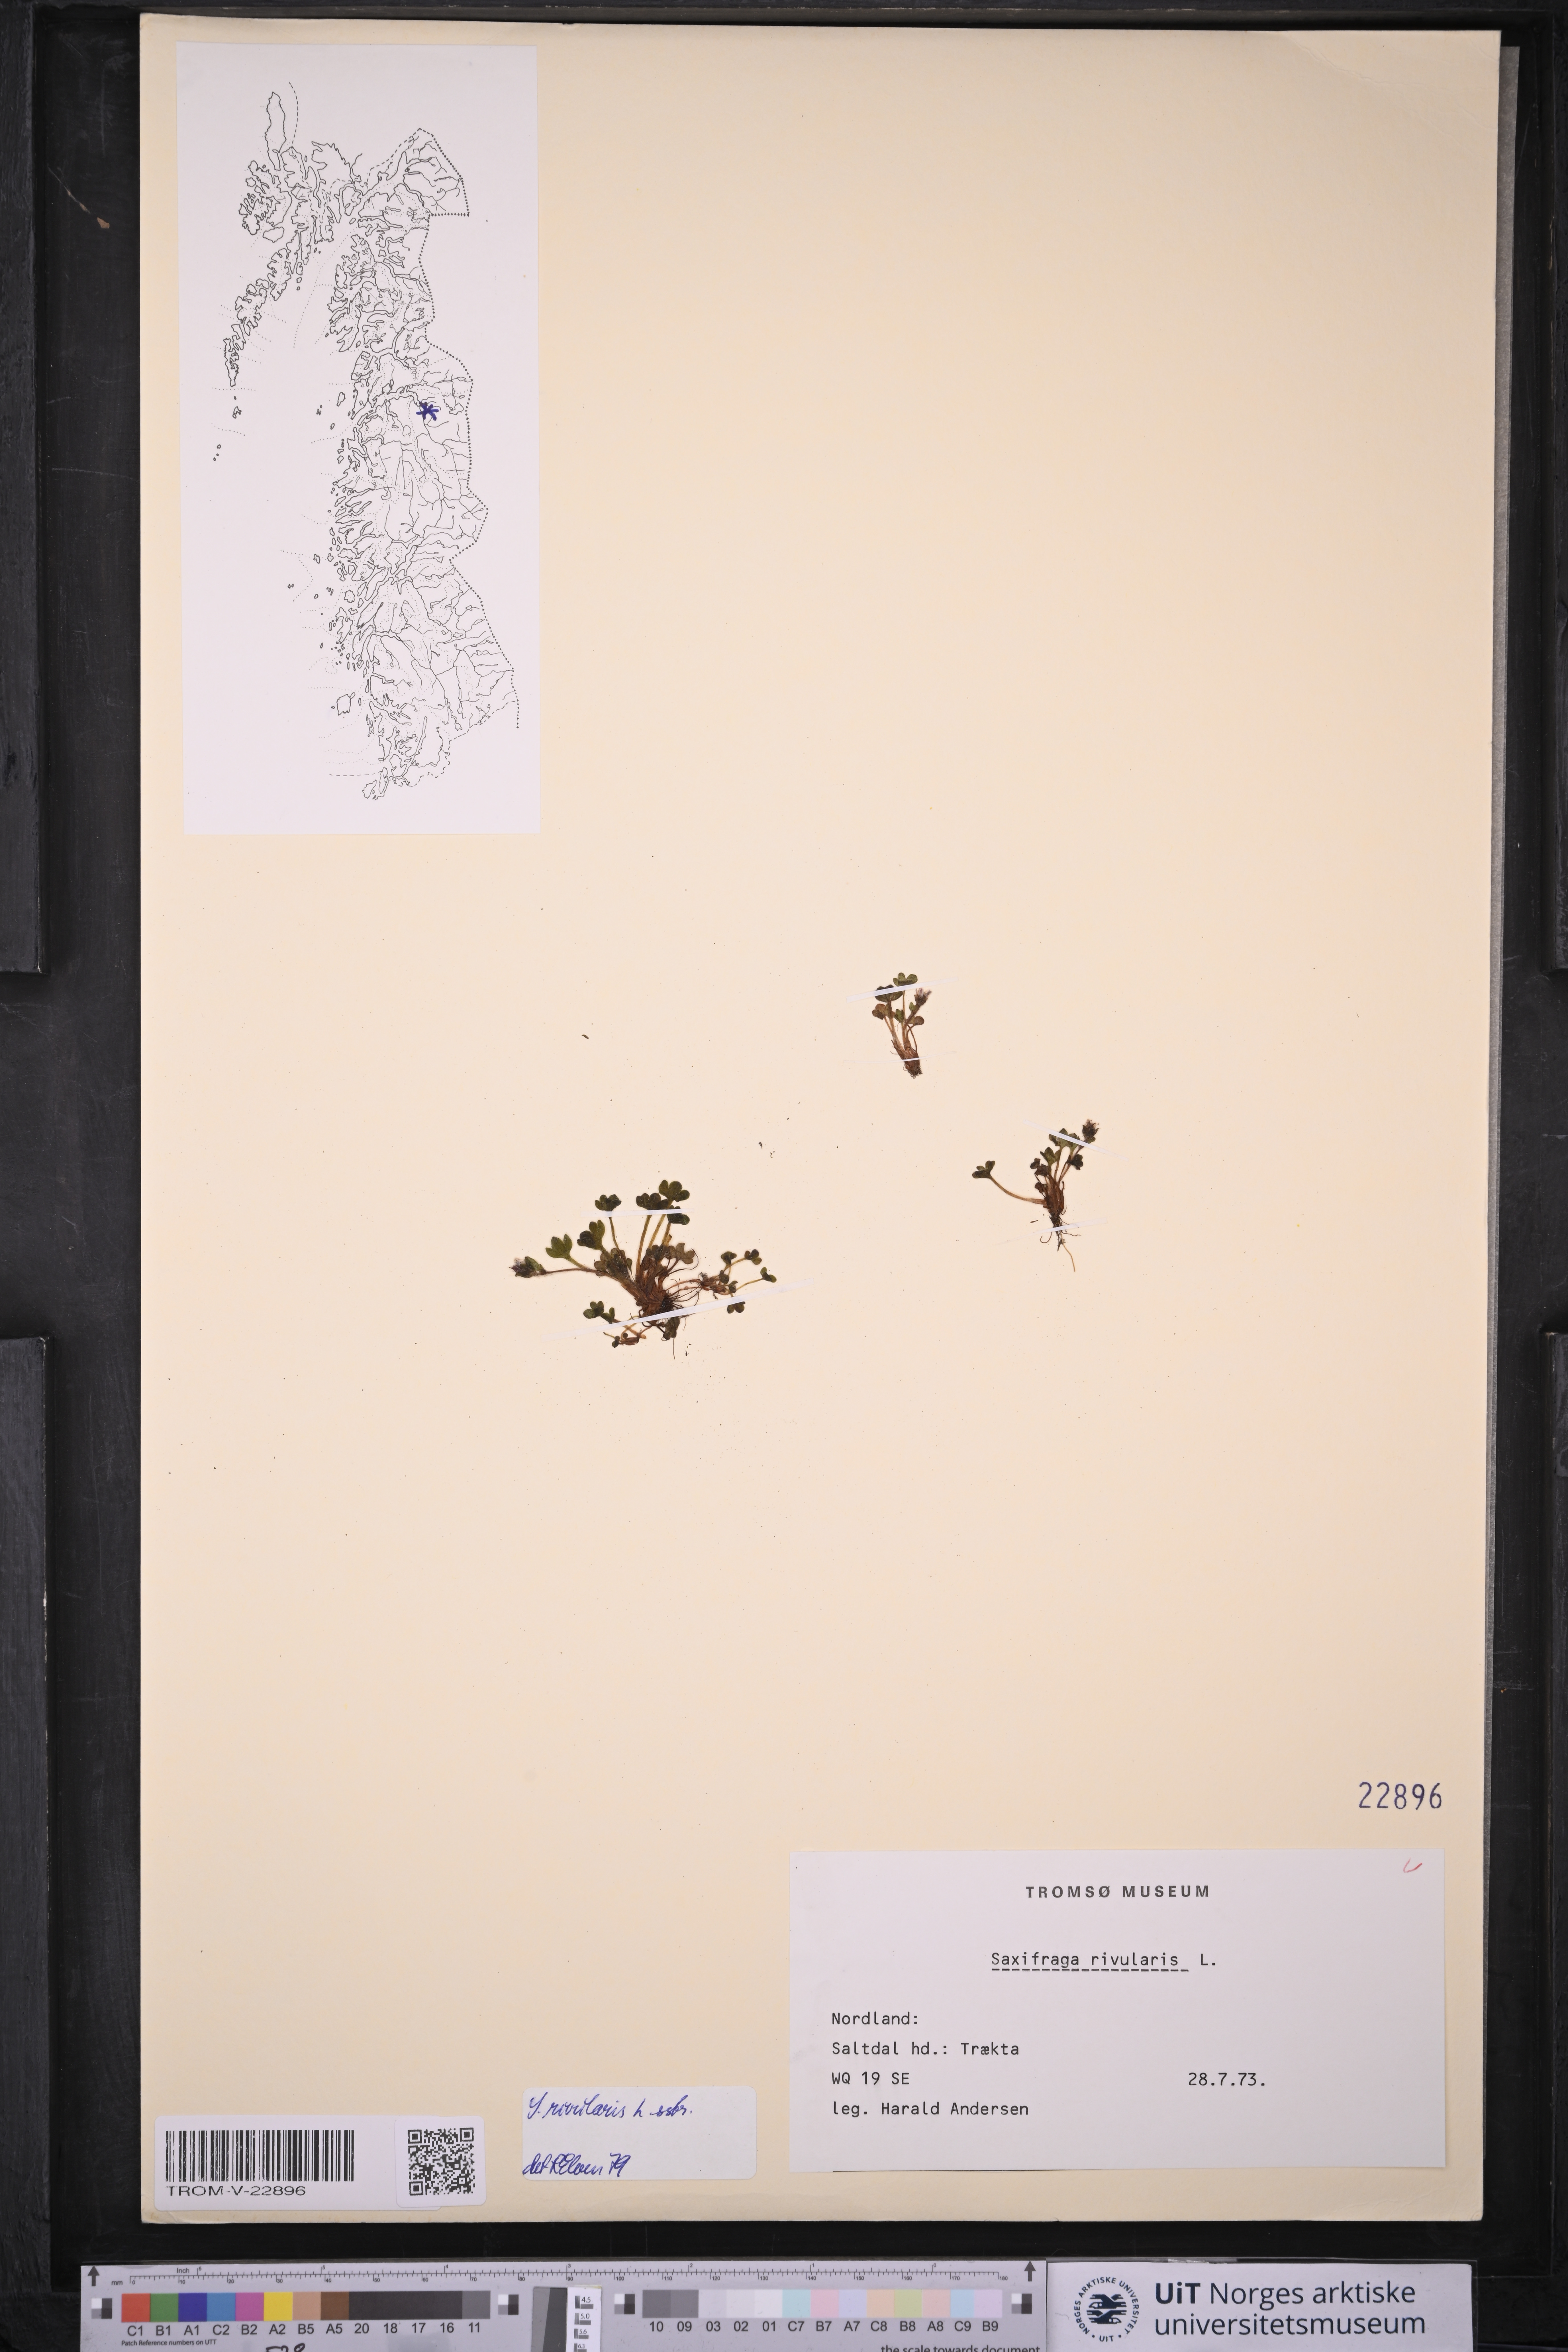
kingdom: Plantae
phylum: Tracheophyta
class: Magnoliopsida
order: Saxifragales
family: Saxifragaceae
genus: Saxifraga
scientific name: Saxifraga rivularis
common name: Highland saxifrage
